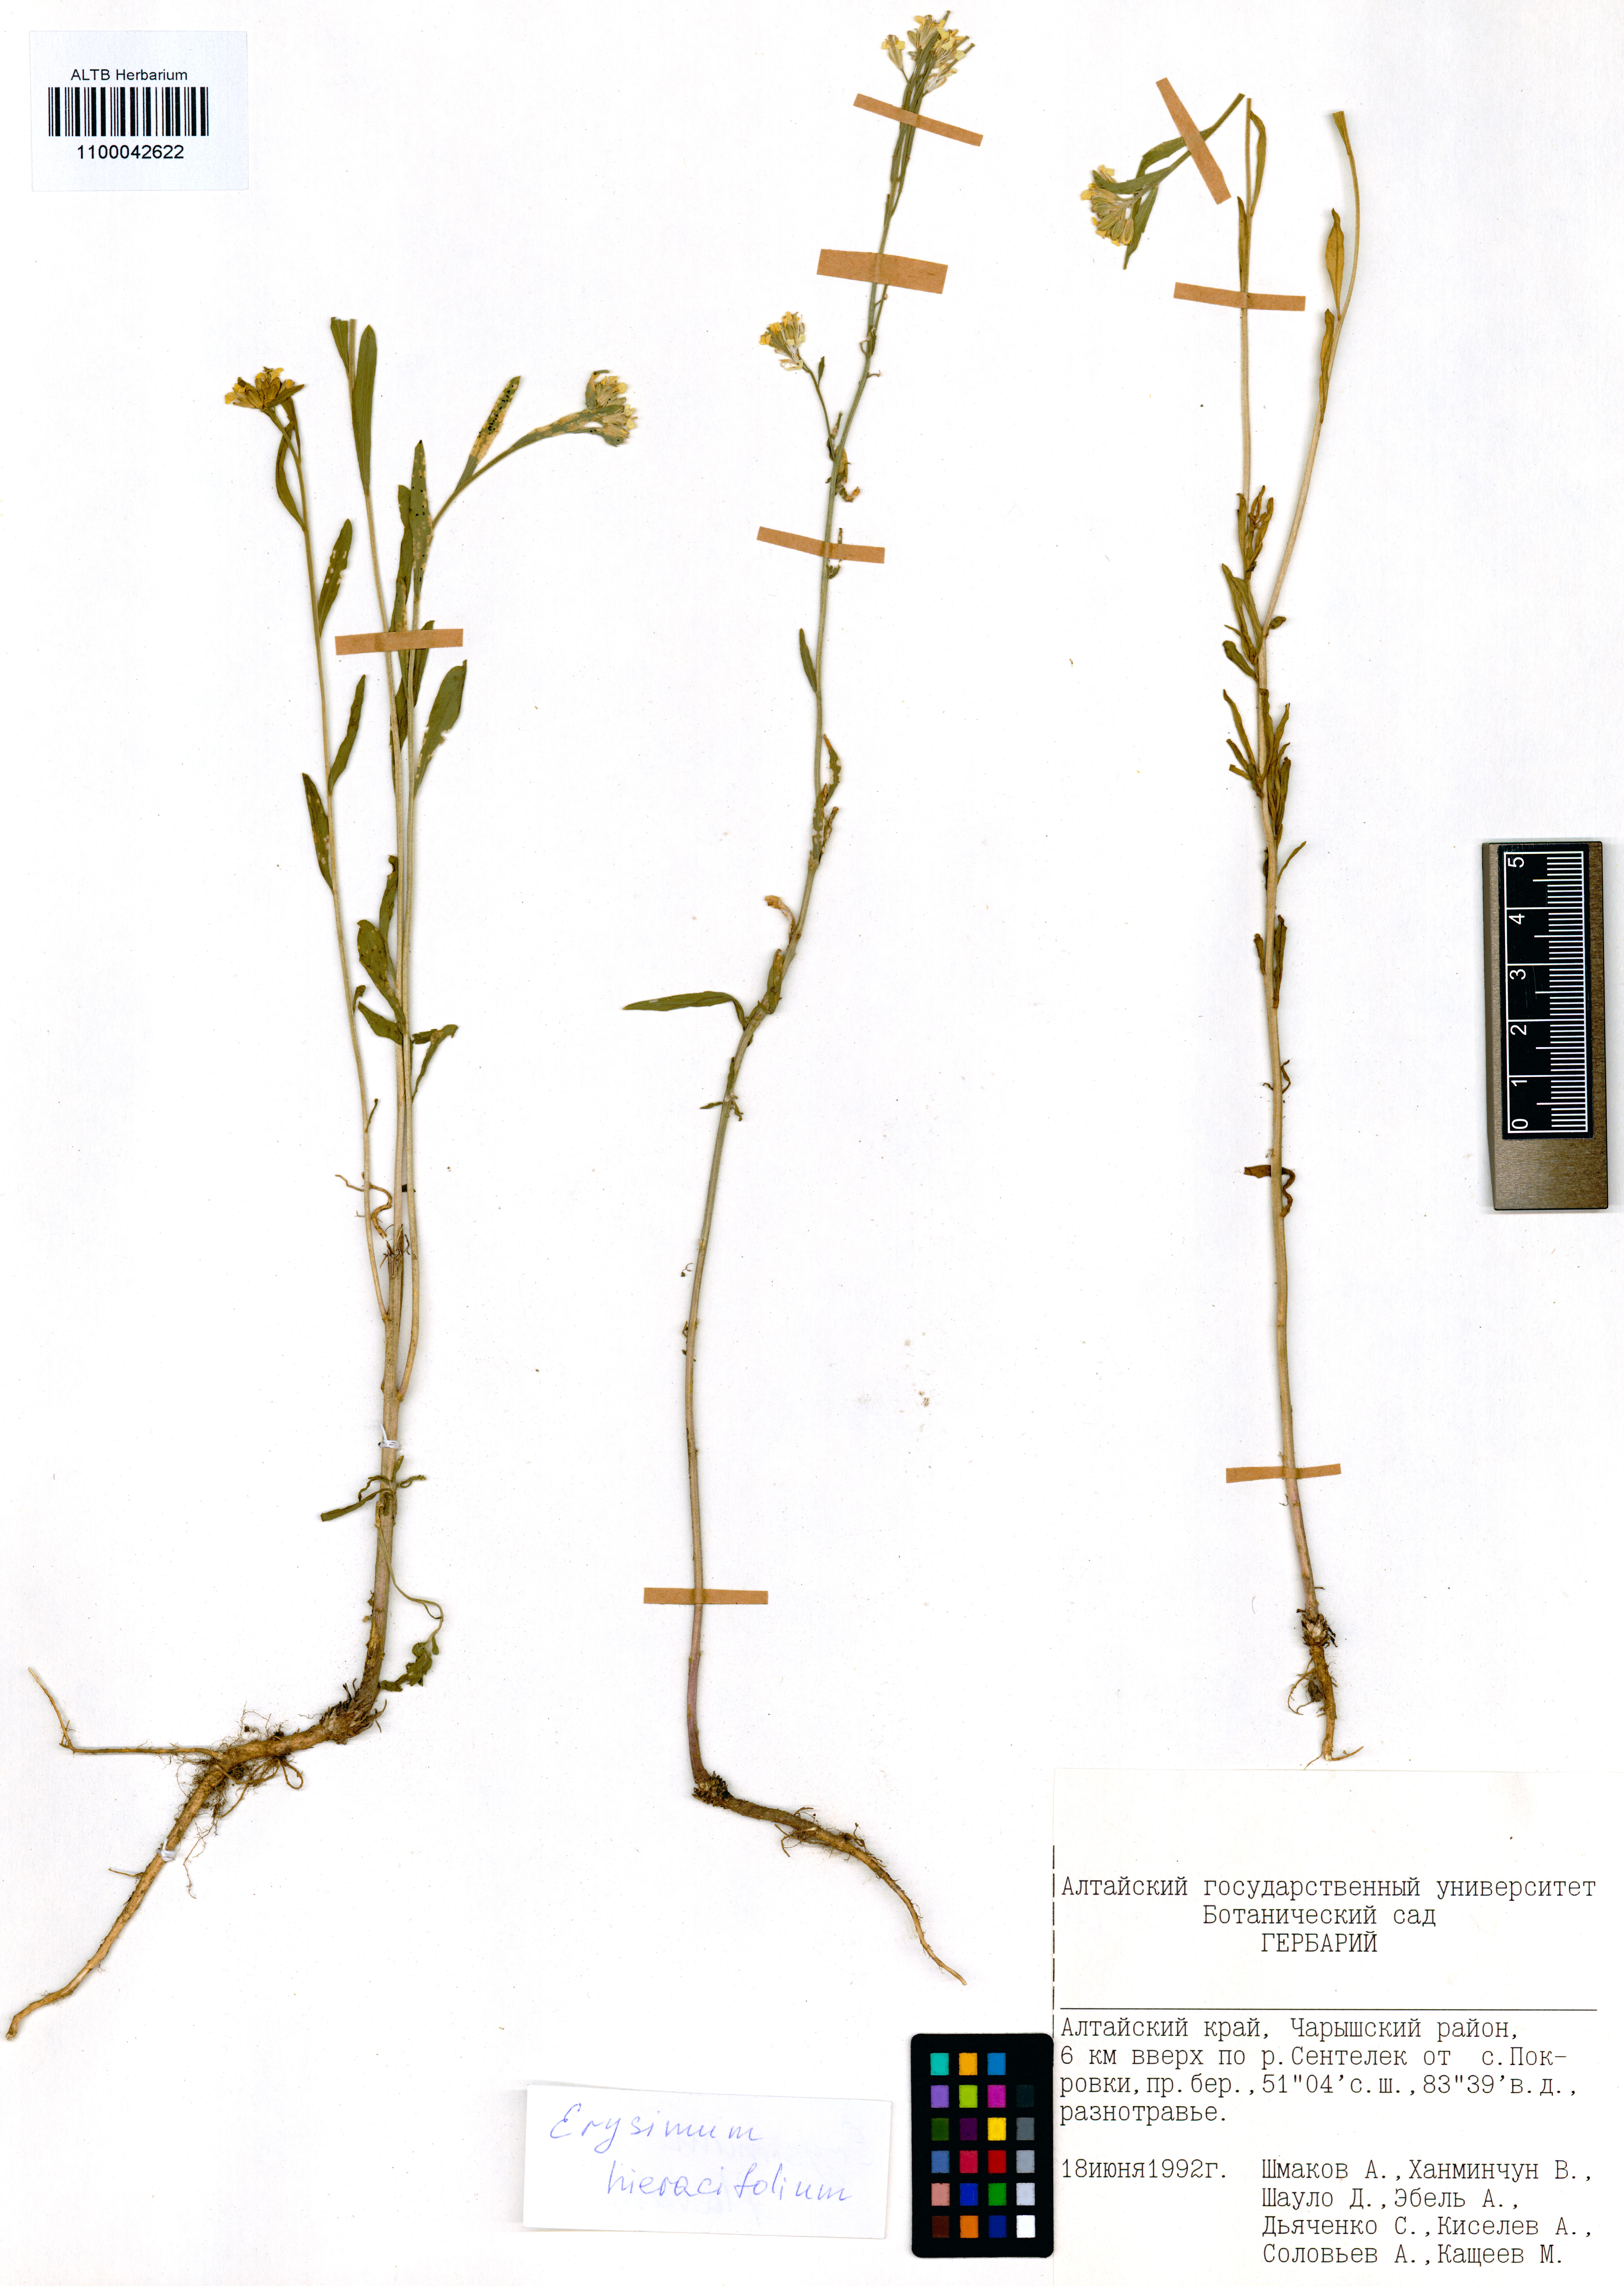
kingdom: Plantae
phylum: Tracheophyta
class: Magnoliopsida
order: Brassicales
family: Brassicaceae
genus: Erysimum
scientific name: Erysimum hieraciifolium
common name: European wallflower
